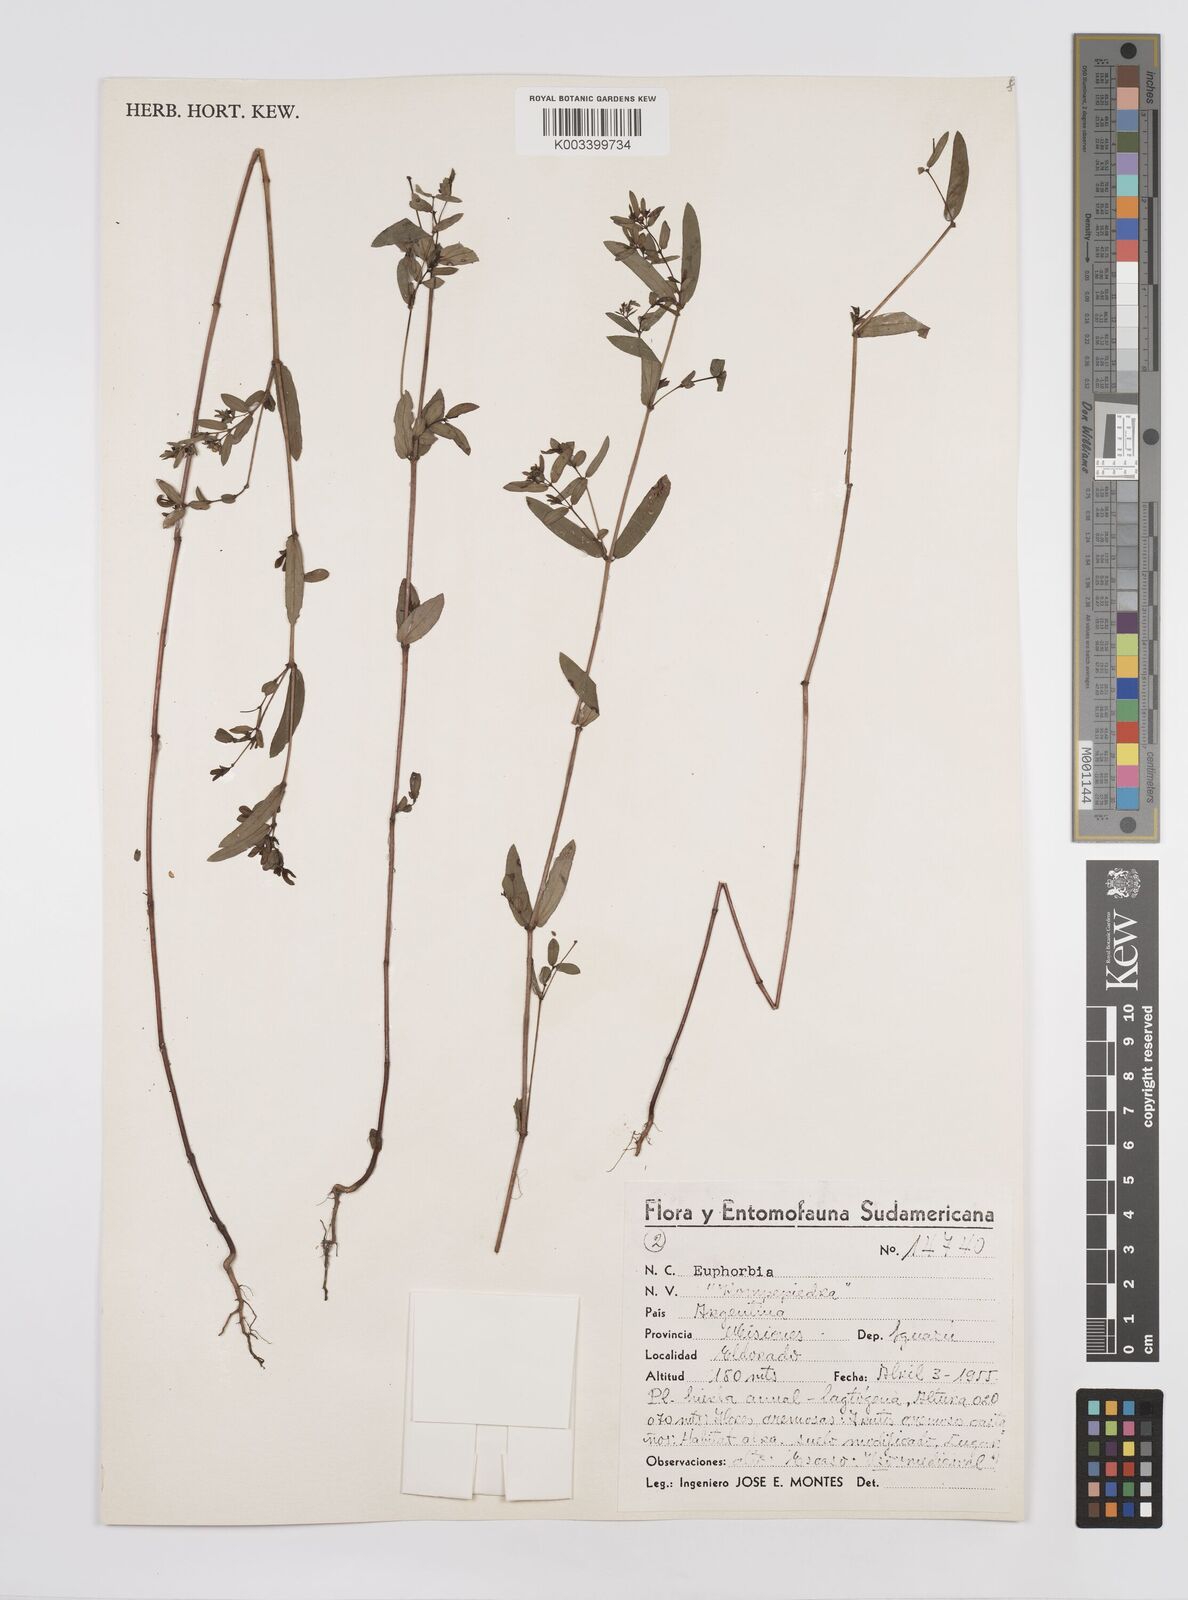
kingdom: Plantae
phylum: Tracheophyta
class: Magnoliopsida
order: Malpighiales
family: Euphorbiaceae
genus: Euphorbia
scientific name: Euphorbia
